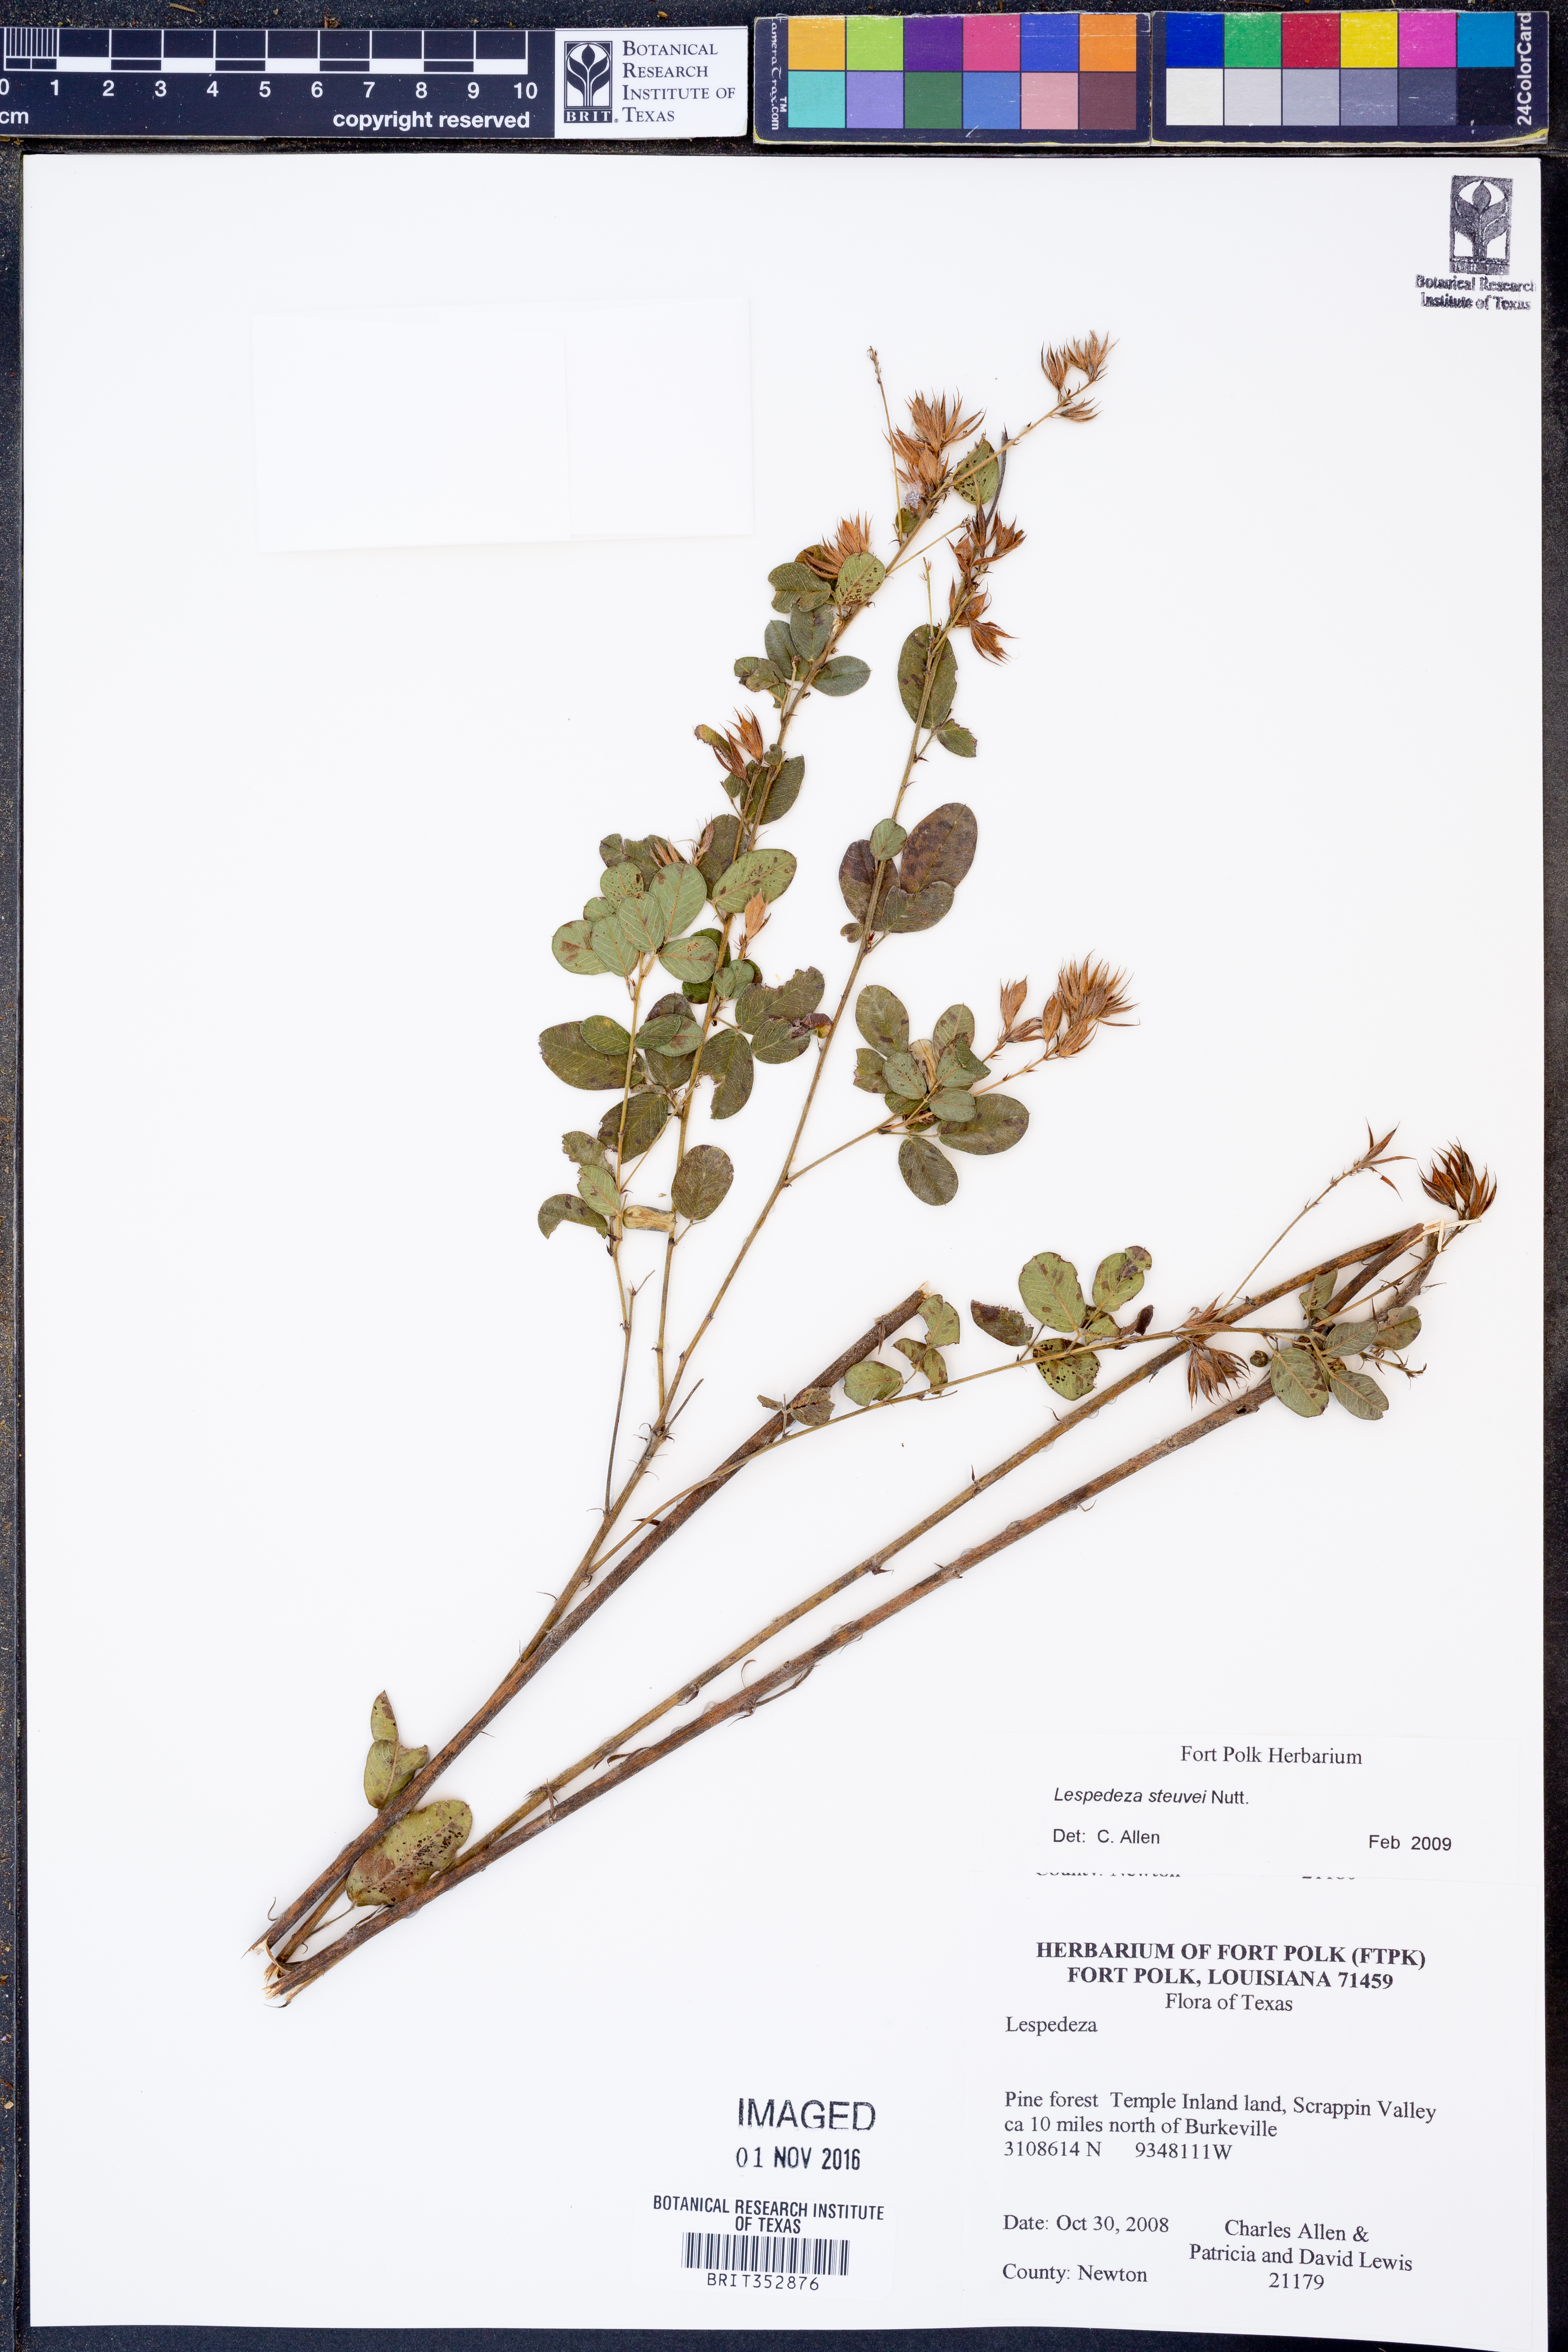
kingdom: Plantae
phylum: Tracheophyta
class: Magnoliopsida
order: Fabales
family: Fabaceae
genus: Lespedeza
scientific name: Lespedeza stuevei
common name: Tall bush-clover
